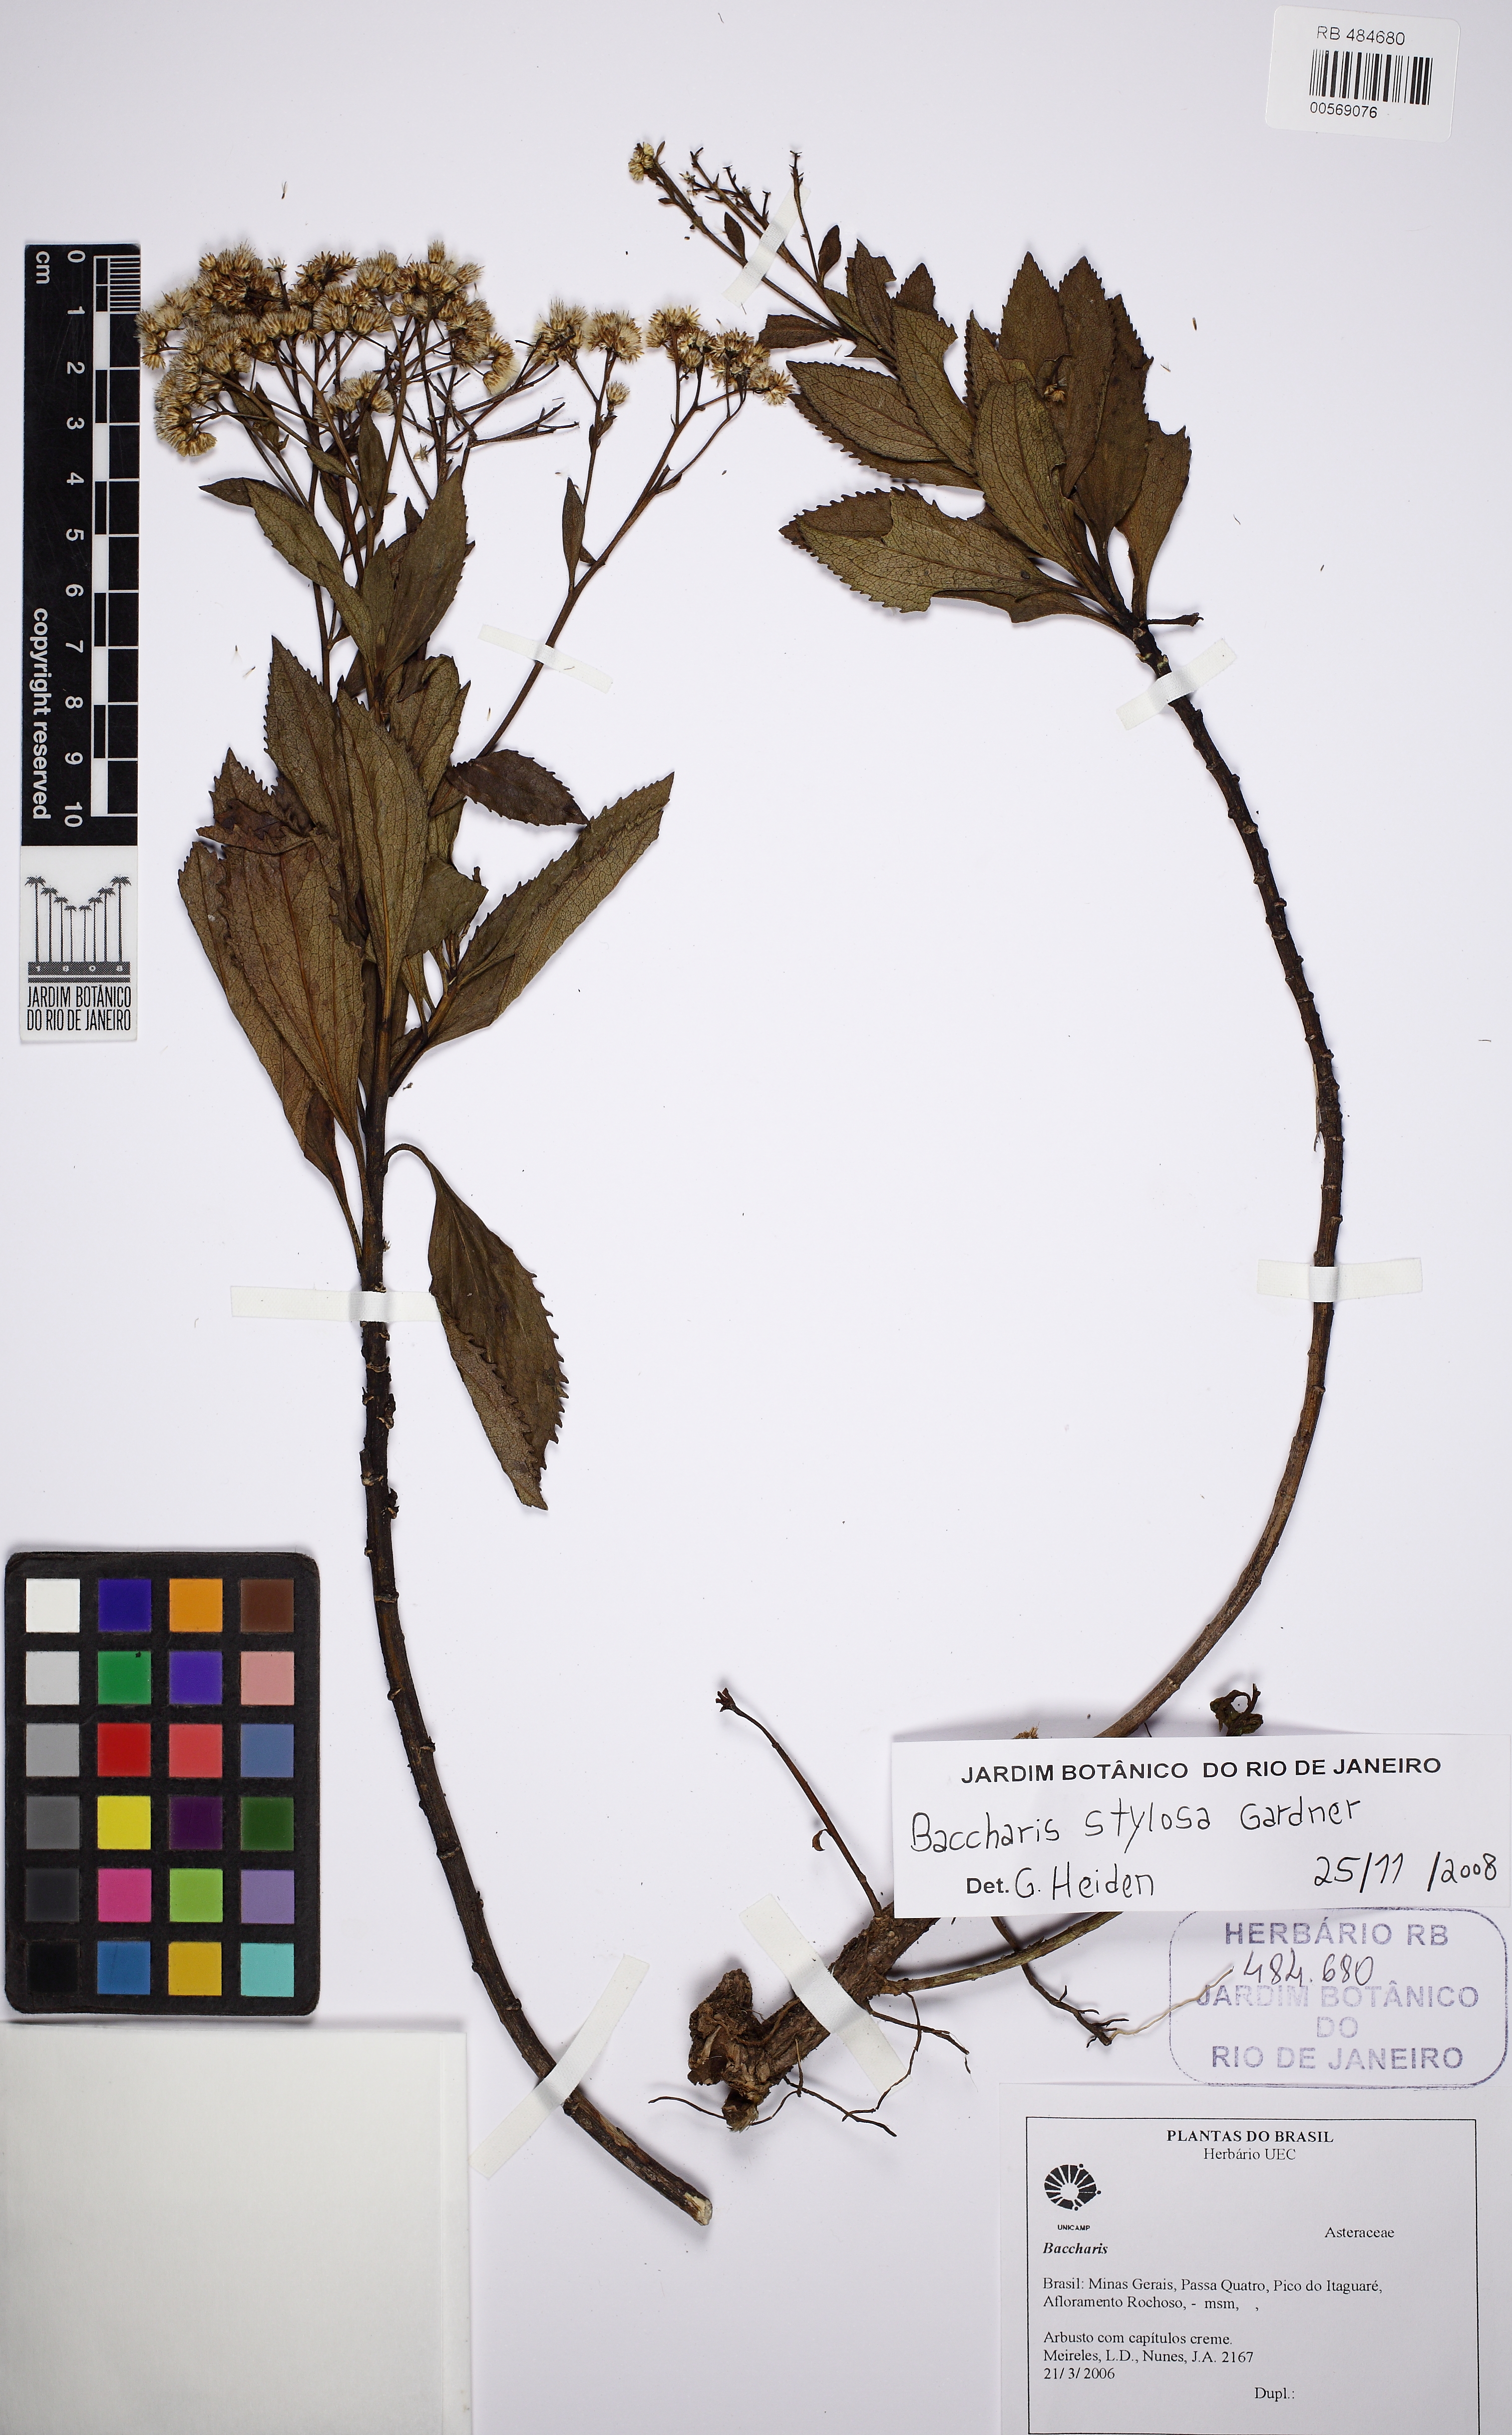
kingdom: Plantae
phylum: Tracheophyta
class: Magnoliopsida
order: Asterales
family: Asteraceae
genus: Baccharis
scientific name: Baccharis stylosa
